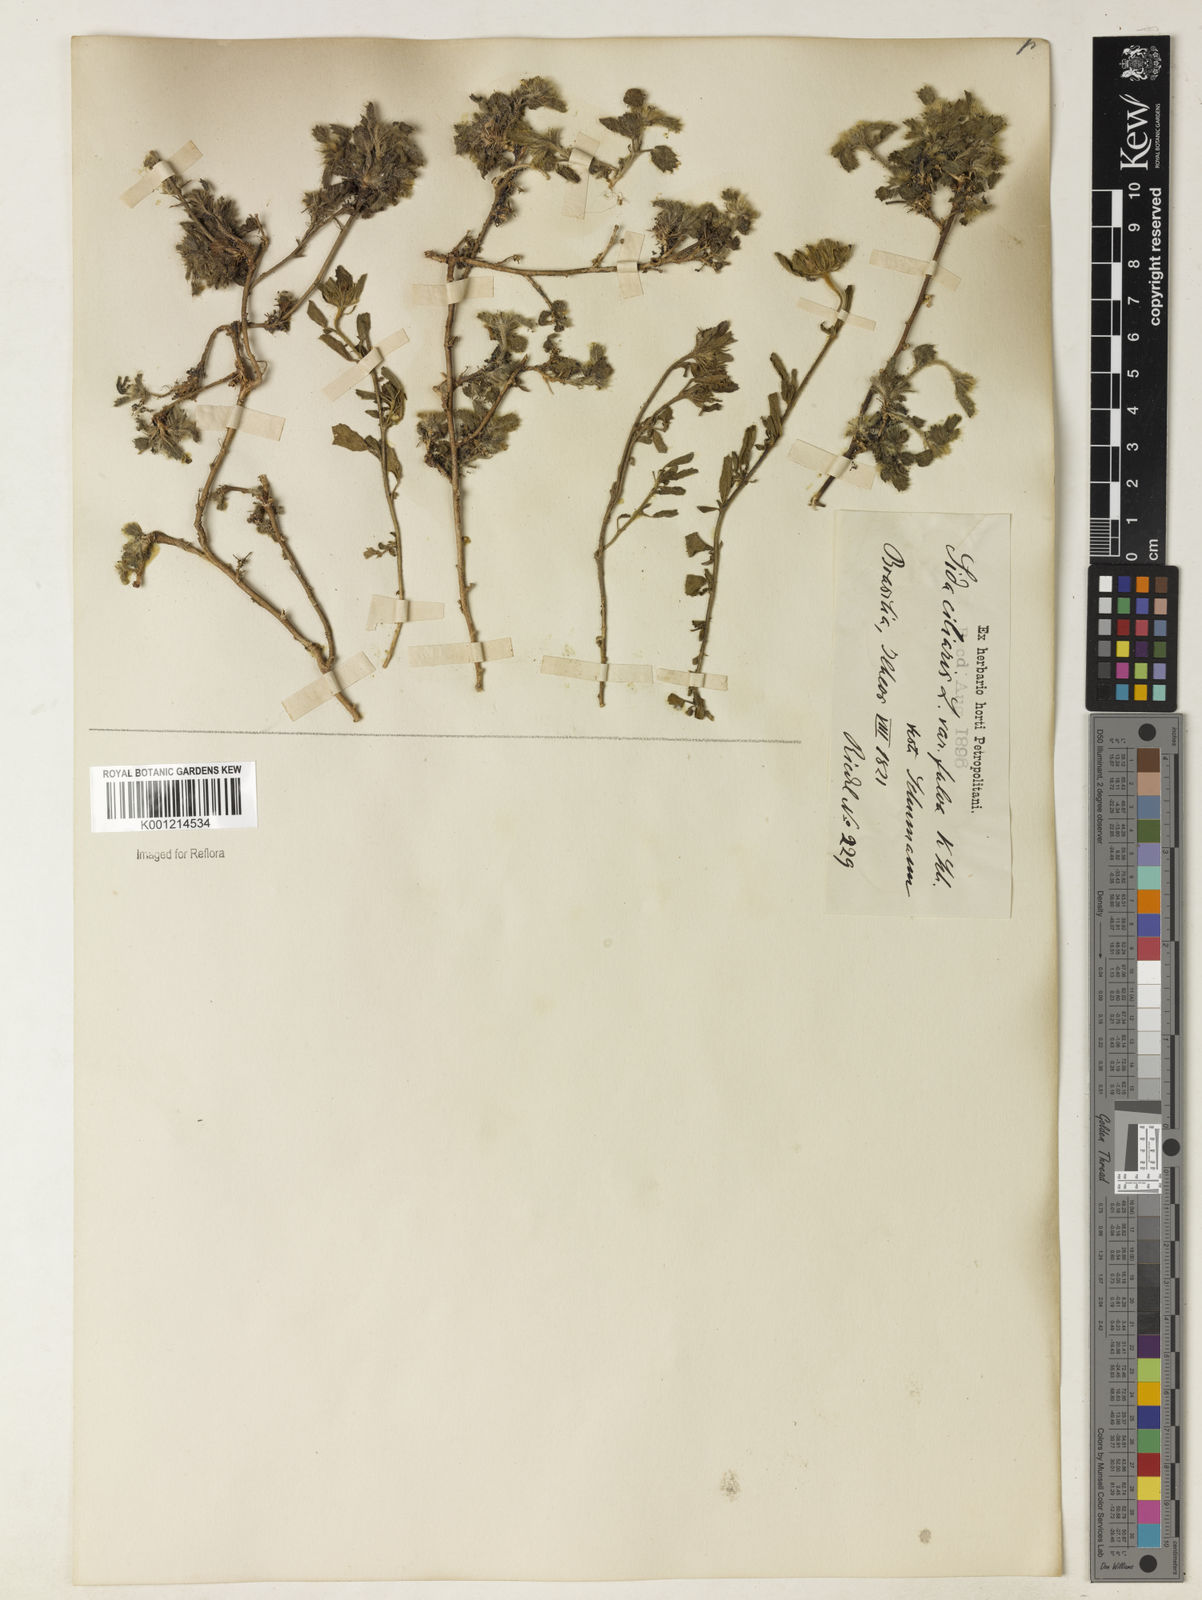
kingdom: Plantae
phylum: Tracheophyta
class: Magnoliopsida
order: Malvales
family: Malvaceae
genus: Sida
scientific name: Sida ciliaris
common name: Bracted fanpetals
